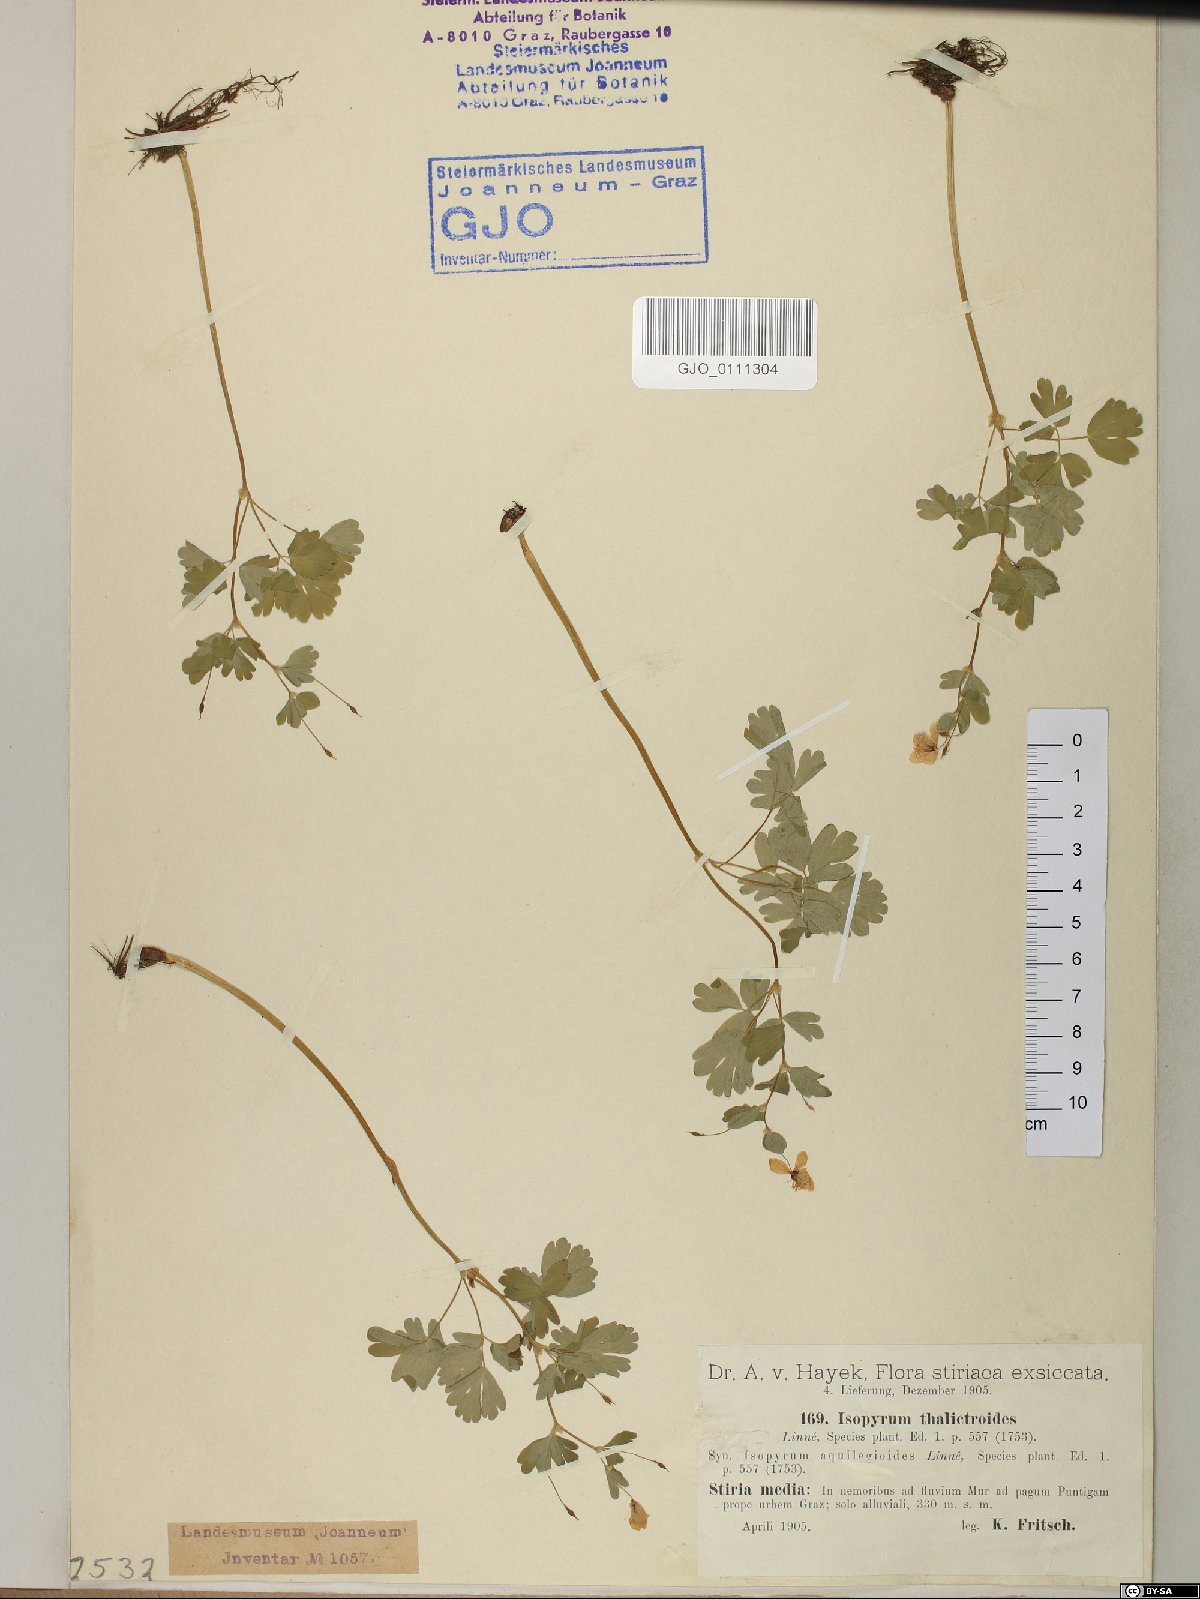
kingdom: Plantae
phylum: Tracheophyta
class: Magnoliopsida
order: Ranunculales
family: Ranunculaceae
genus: Isopyrum
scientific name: Isopyrum thalictroides
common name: Isopyrum
